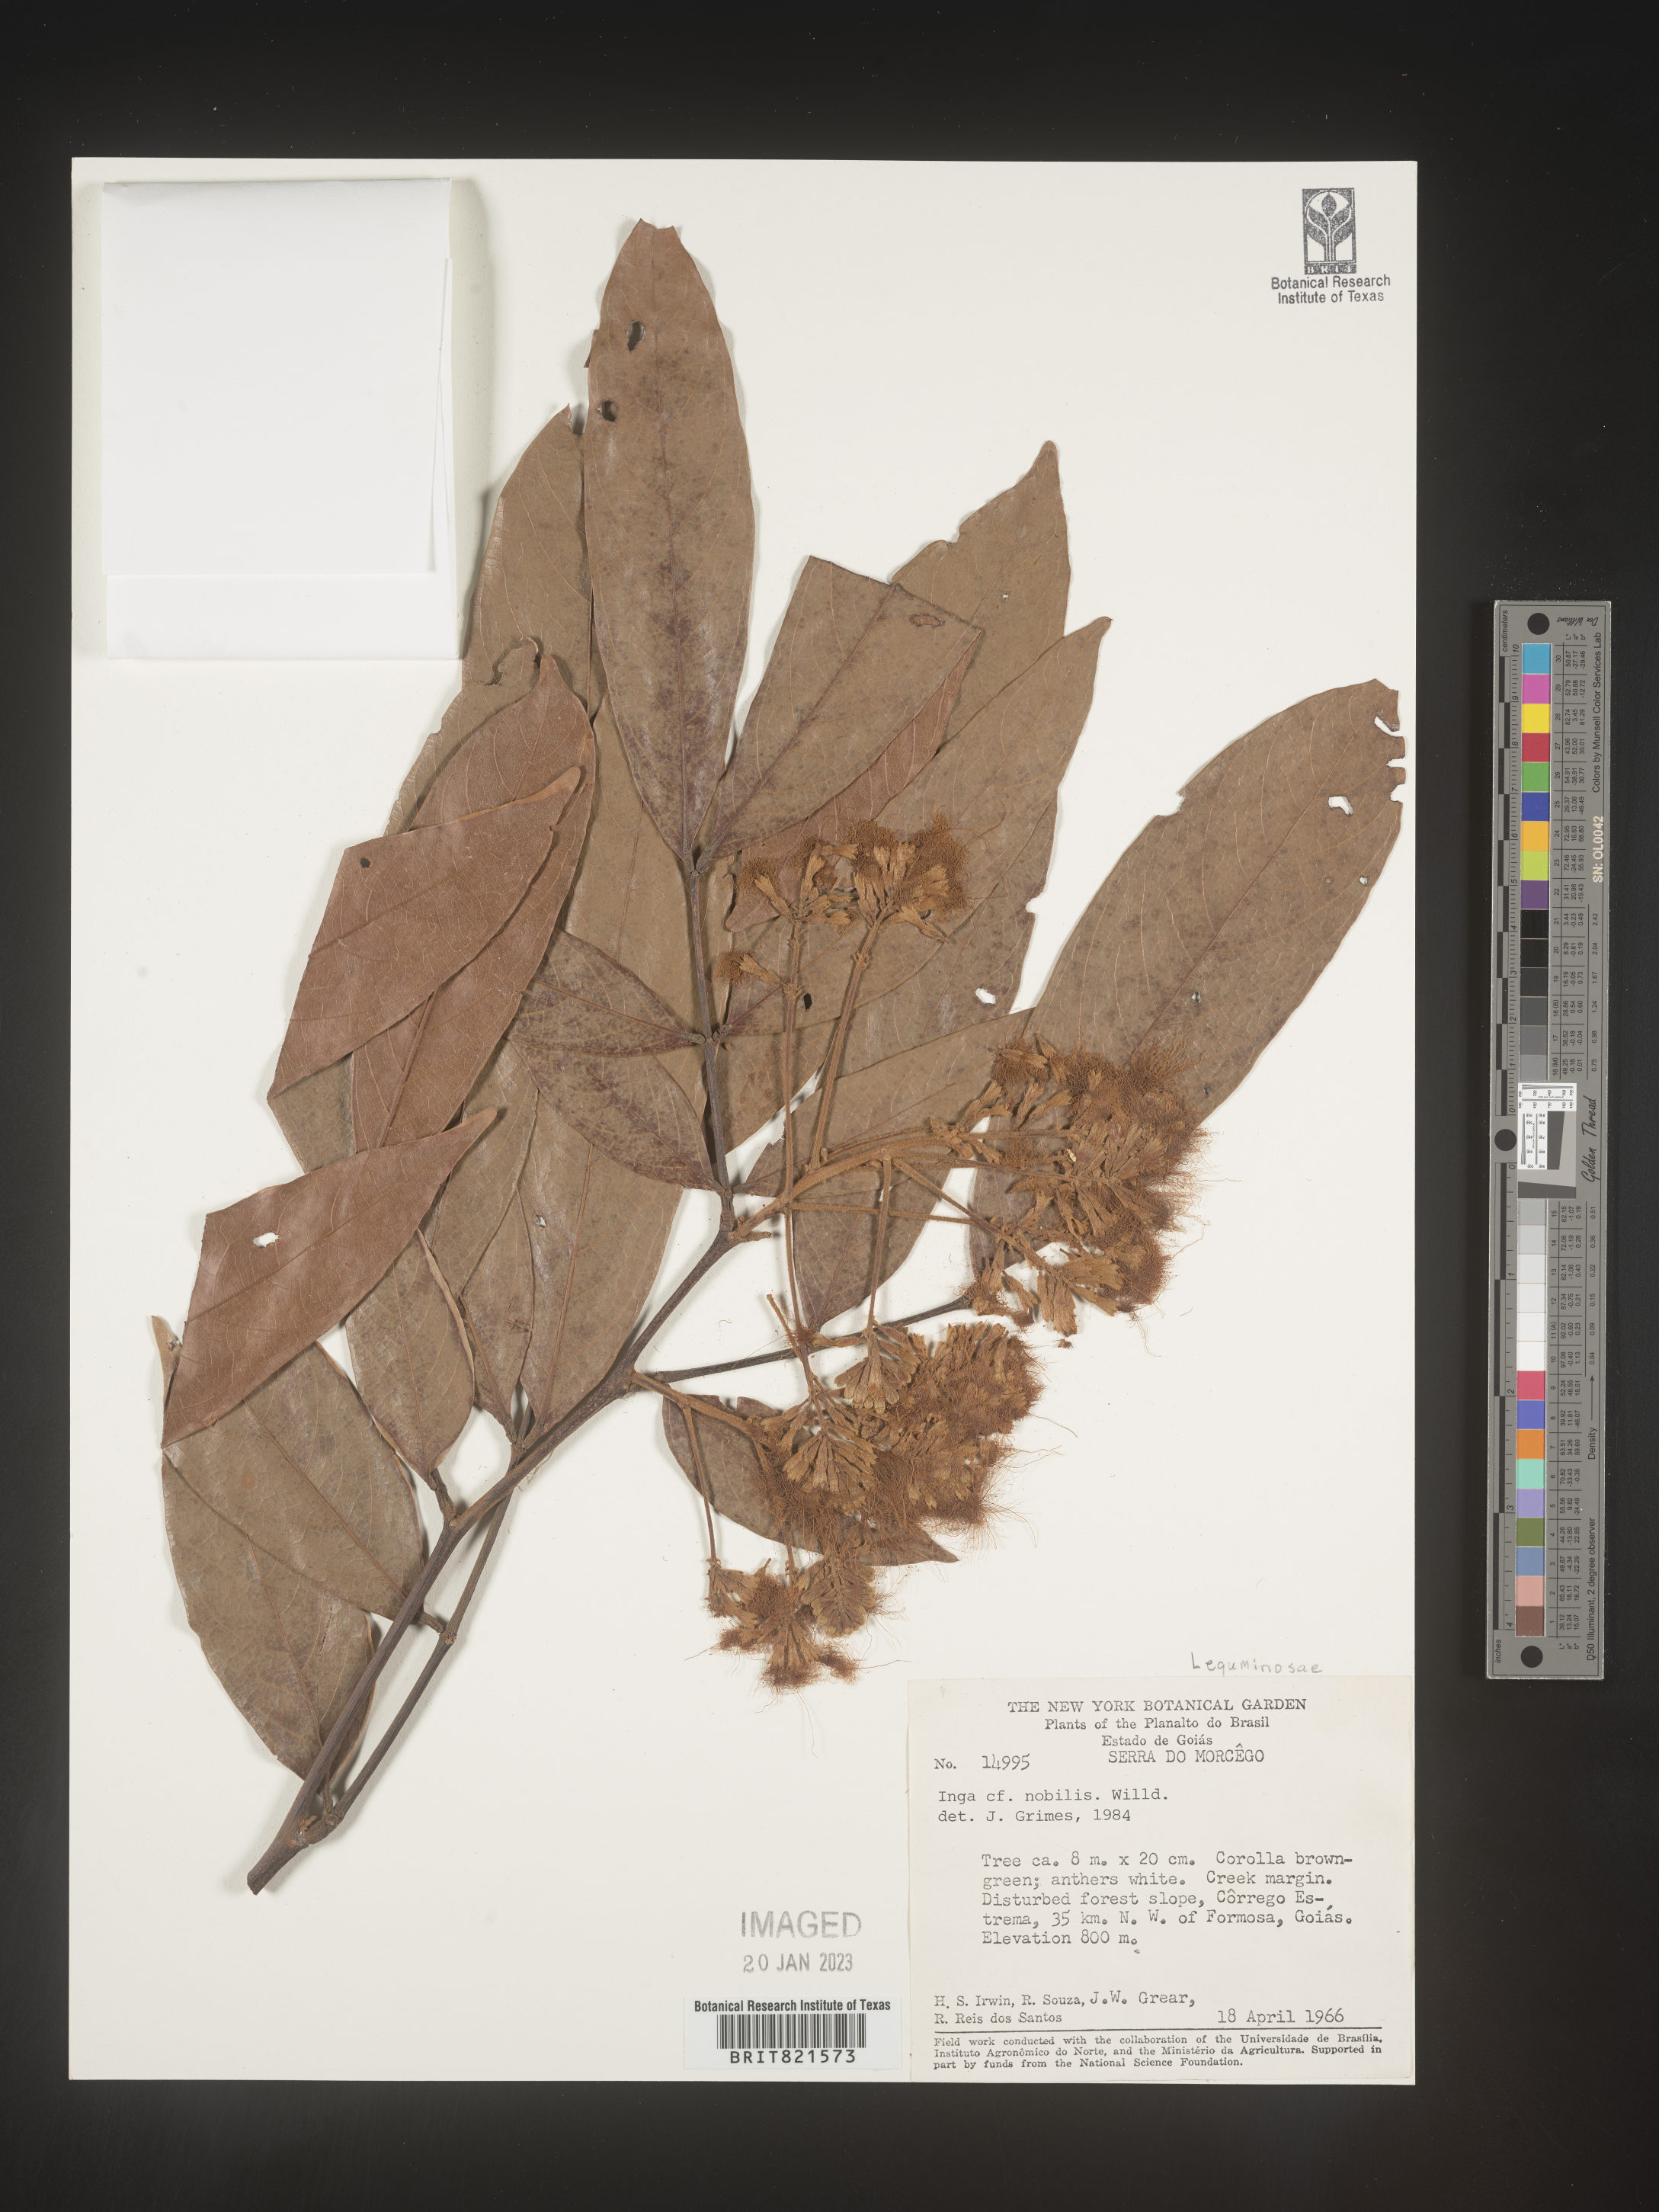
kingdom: Plantae
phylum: Tracheophyta
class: Magnoliopsida
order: Fabales
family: Fabaceae
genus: Inga
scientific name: Inga
